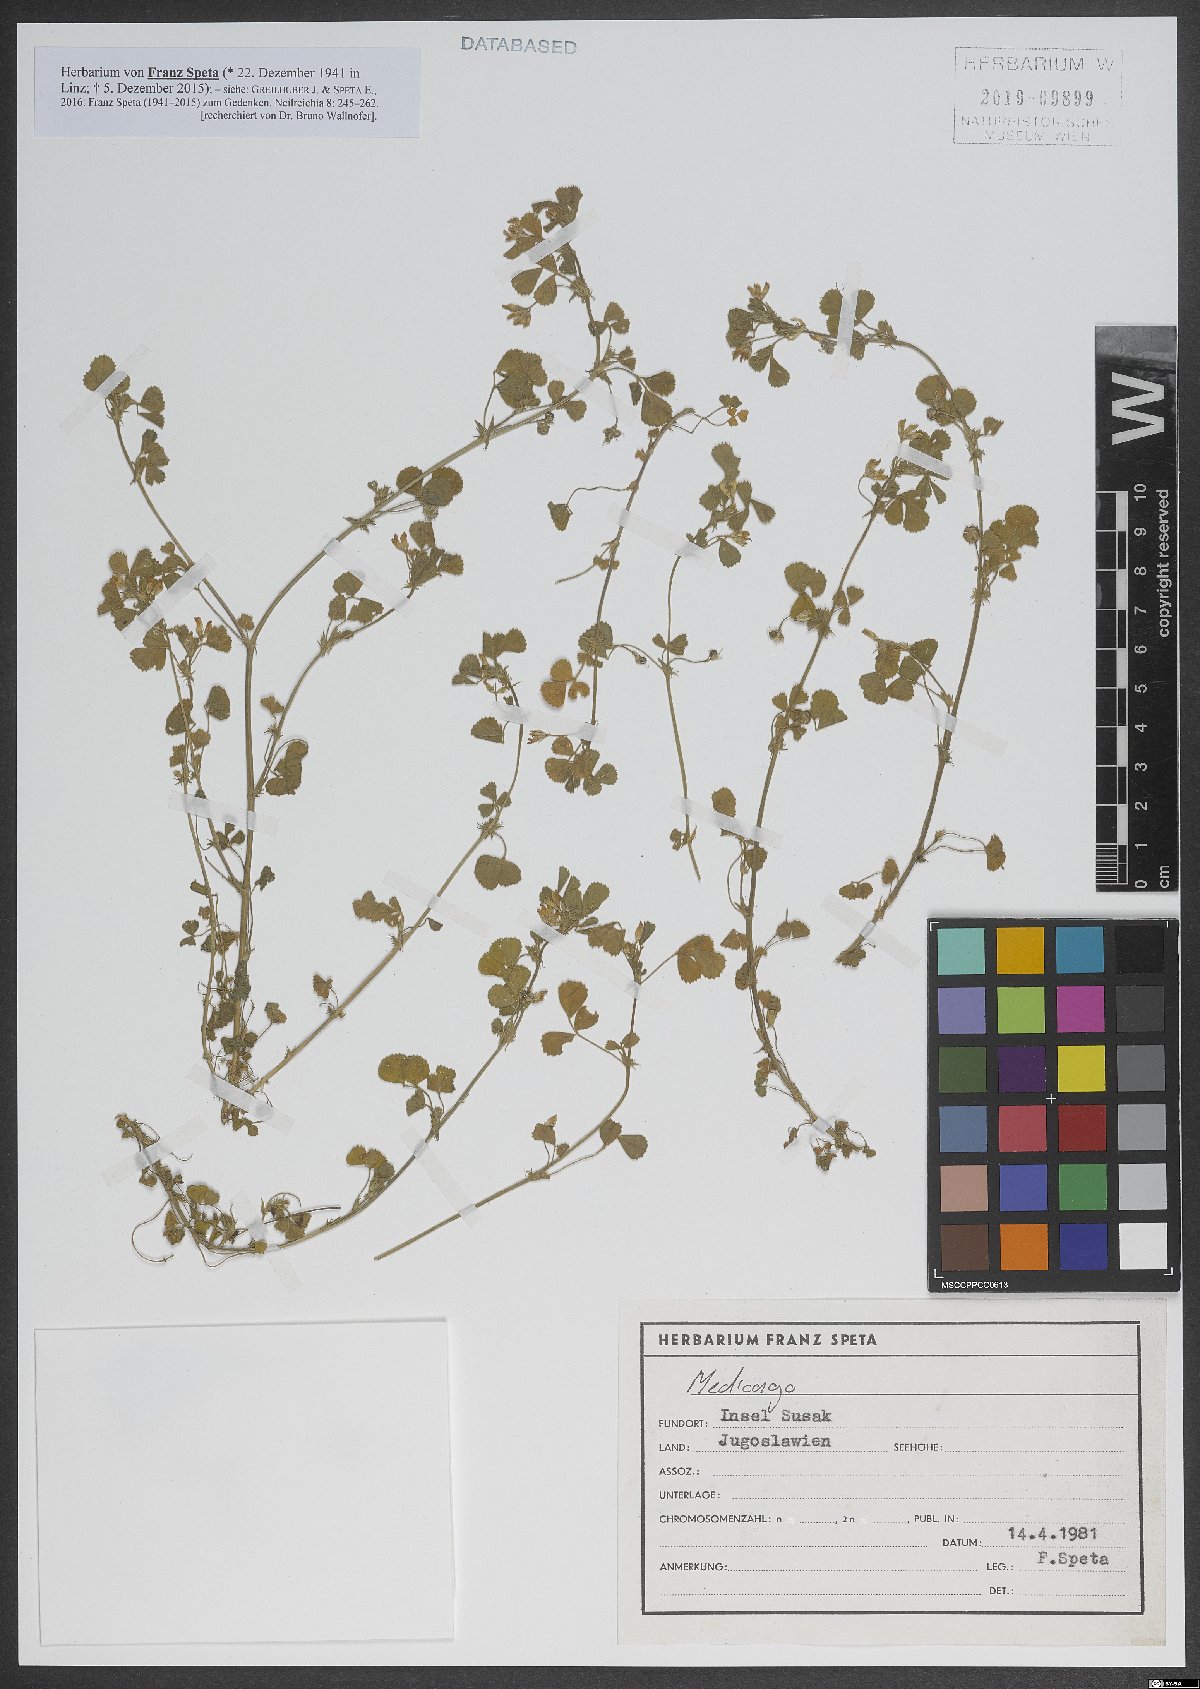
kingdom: Plantae
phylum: Tracheophyta
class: Magnoliopsida
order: Fabales
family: Fabaceae
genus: Medicago
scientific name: Medicago
